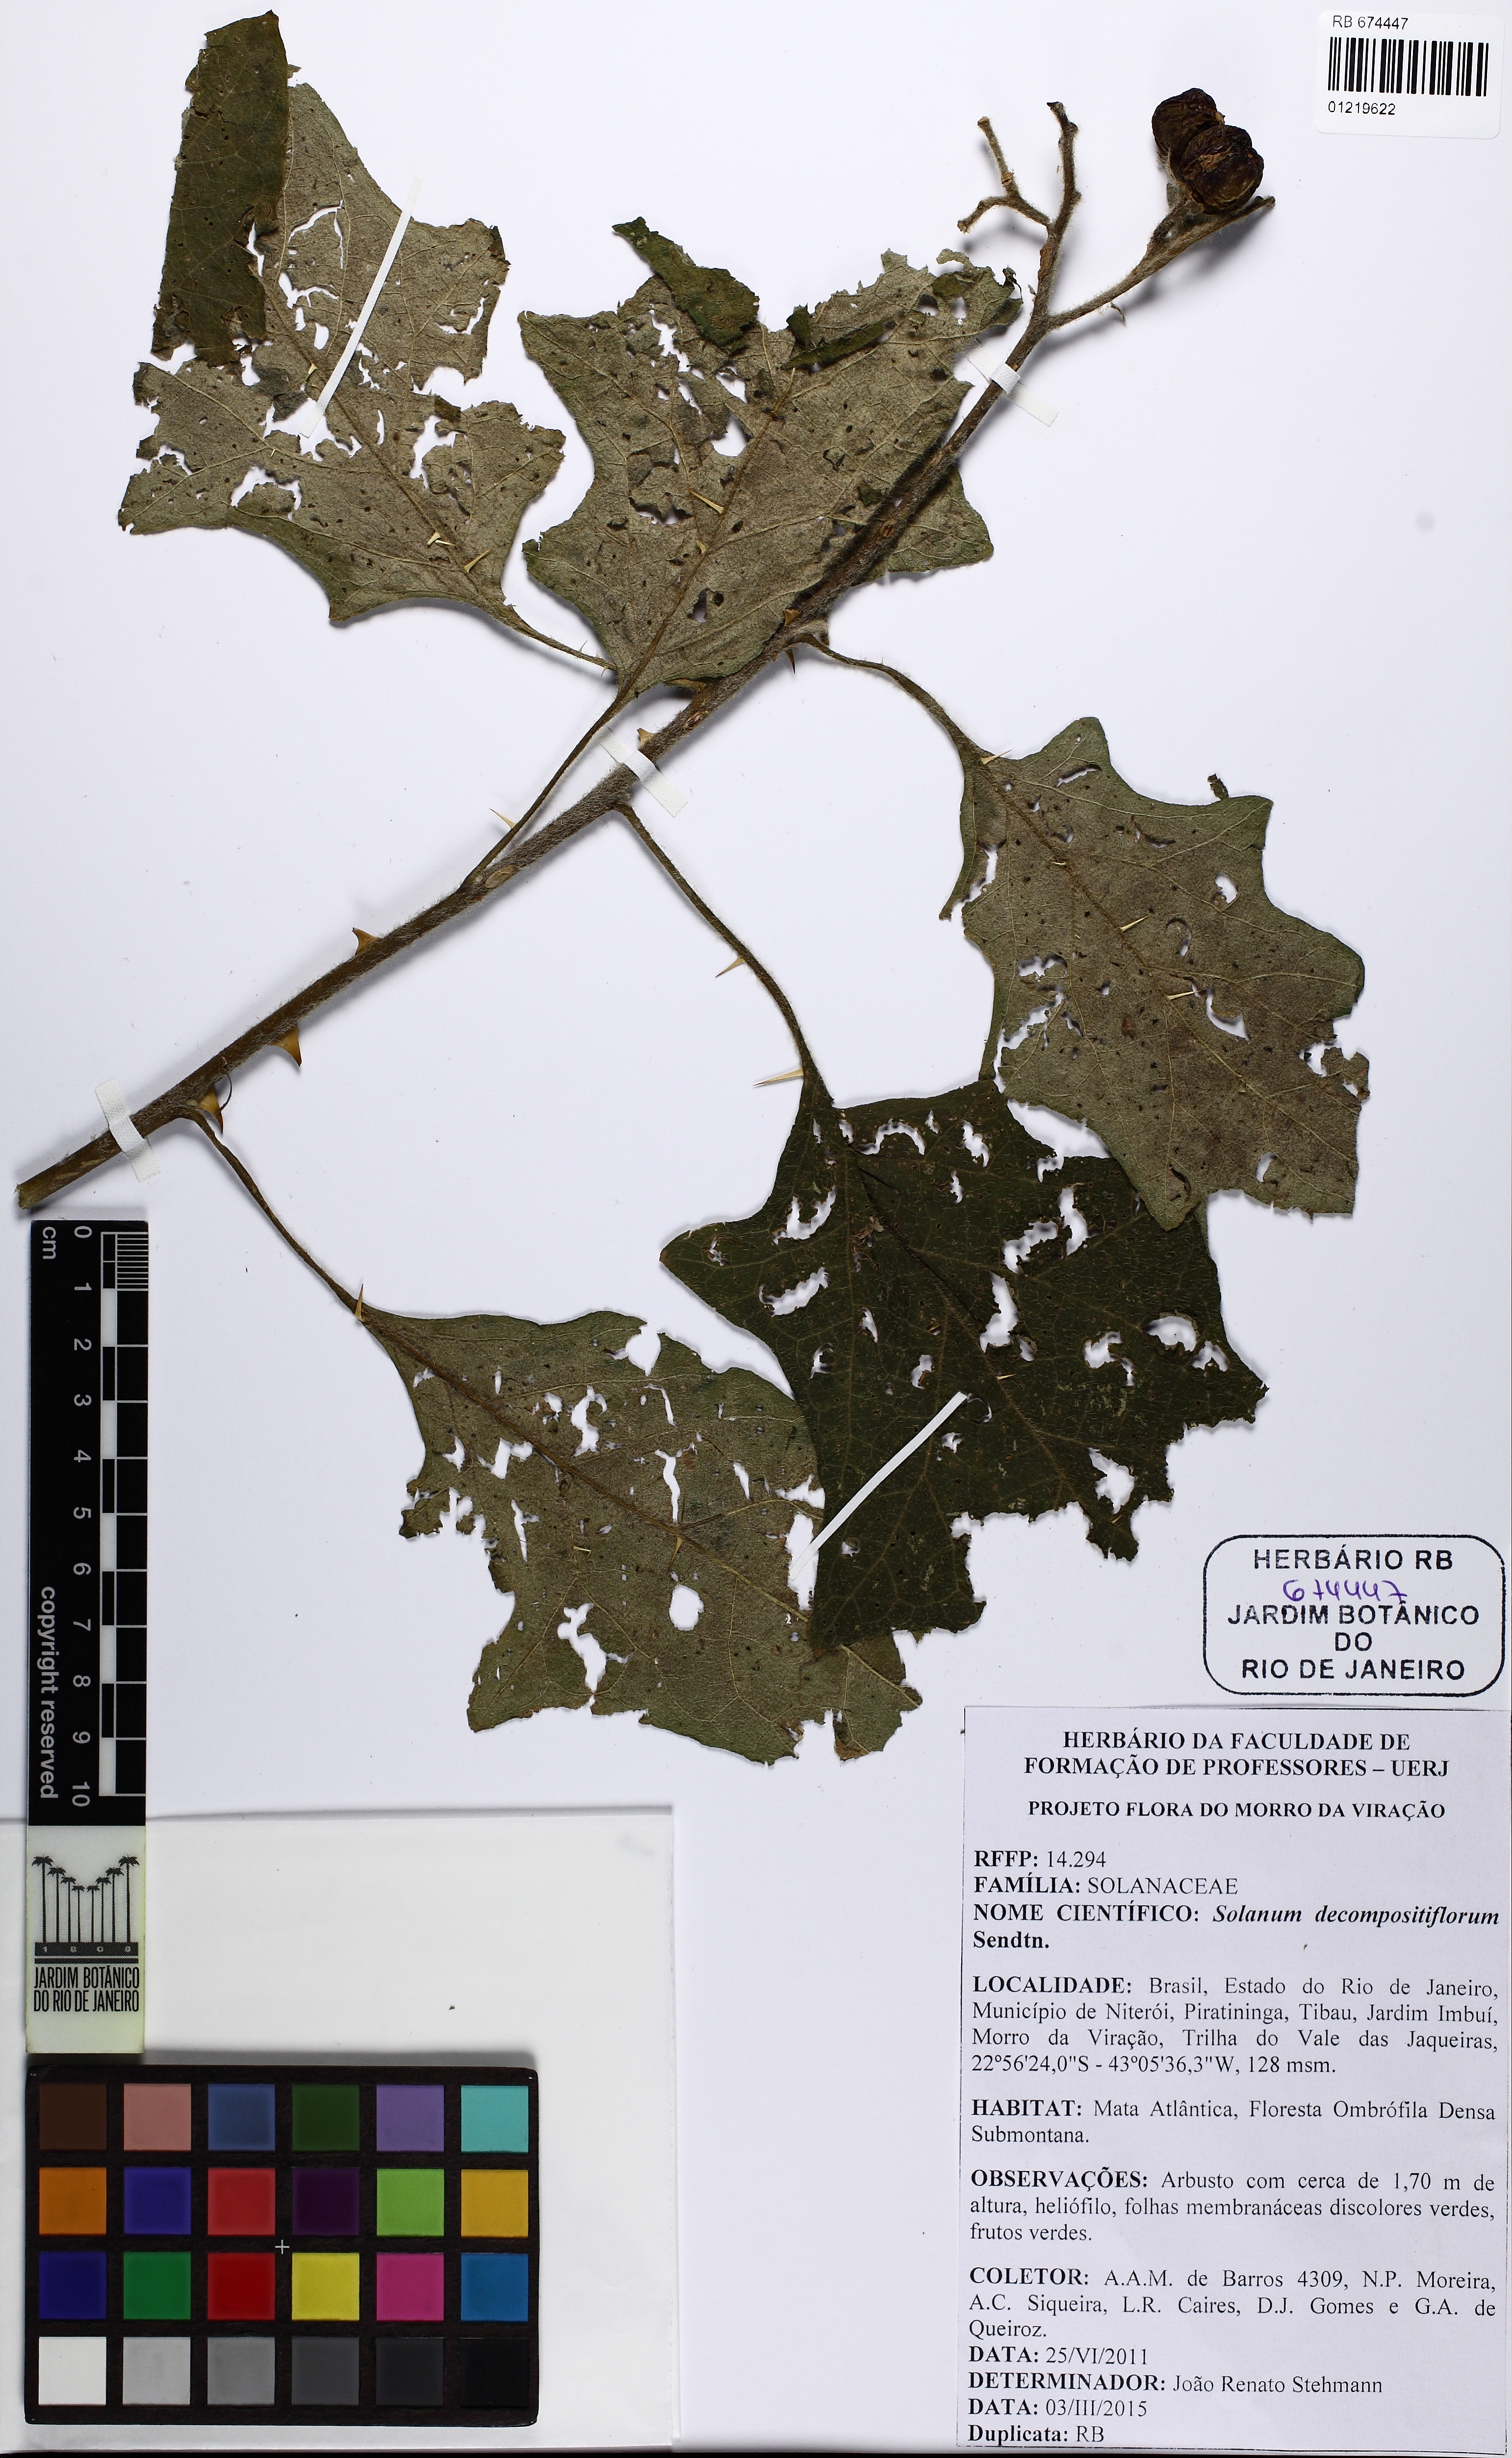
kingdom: Plantae
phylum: Tracheophyta
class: Magnoliopsida
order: Solanales
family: Solanaceae
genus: Solanum
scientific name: Solanum decompositiflorum
